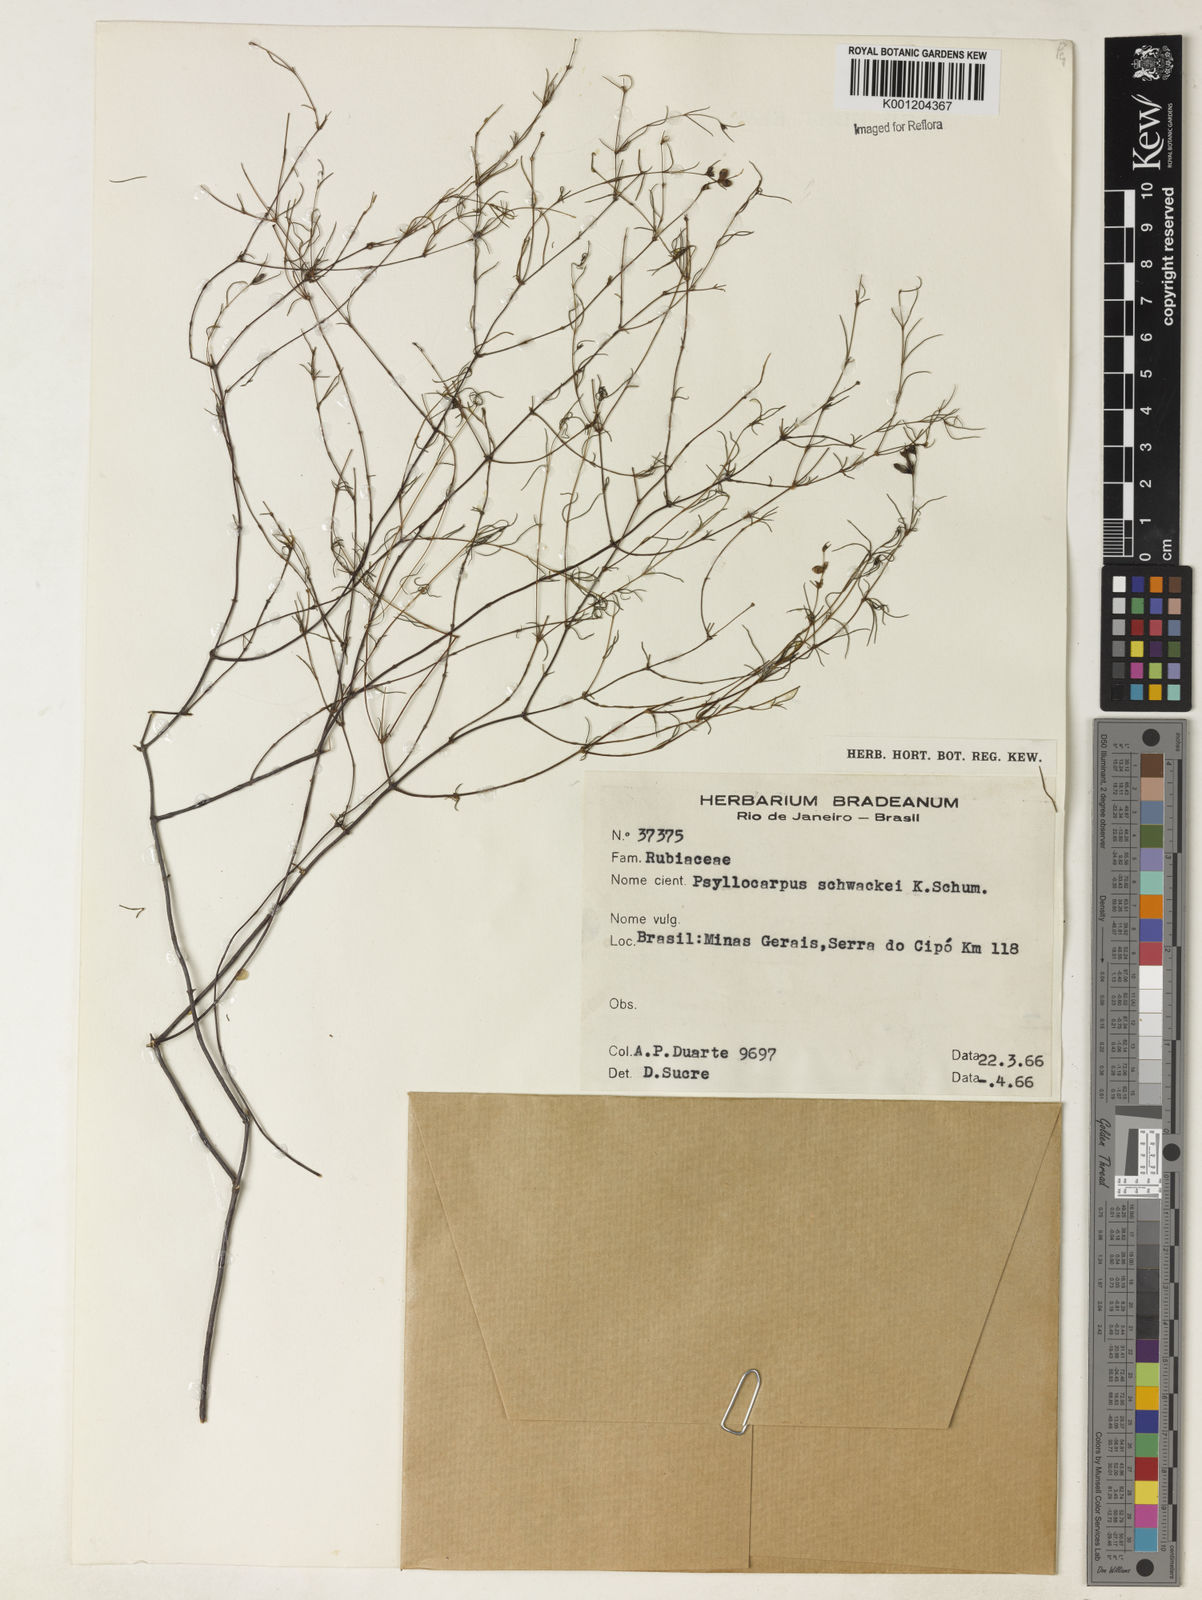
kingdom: Plantae
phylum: Tracheophyta
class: Magnoliopsida
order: Gentianales
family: Rubiaceae
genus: Psyllocarpus
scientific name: Psyllocarpus schwackei
